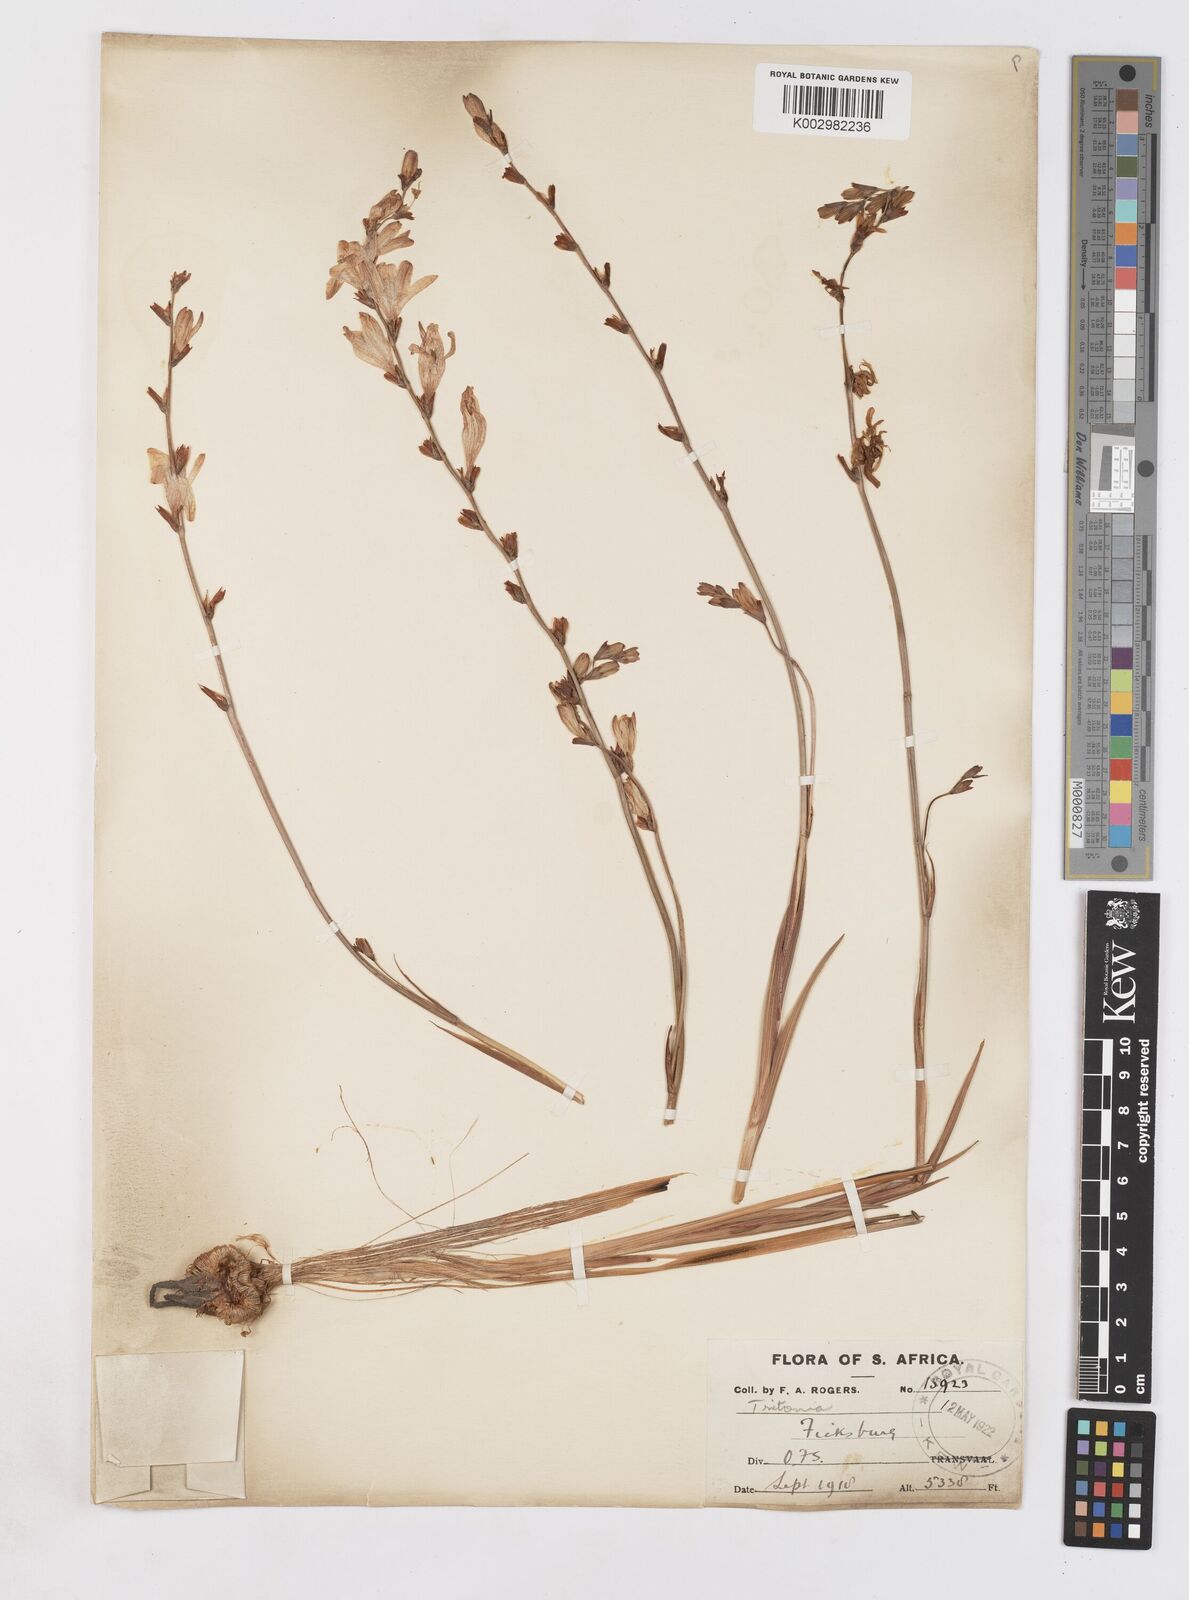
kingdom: Plantae
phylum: Tracheophyta
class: Liliopsida
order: Asparagales
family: Iridaceae
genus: Tritonia
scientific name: Tritonia gladiolaris
